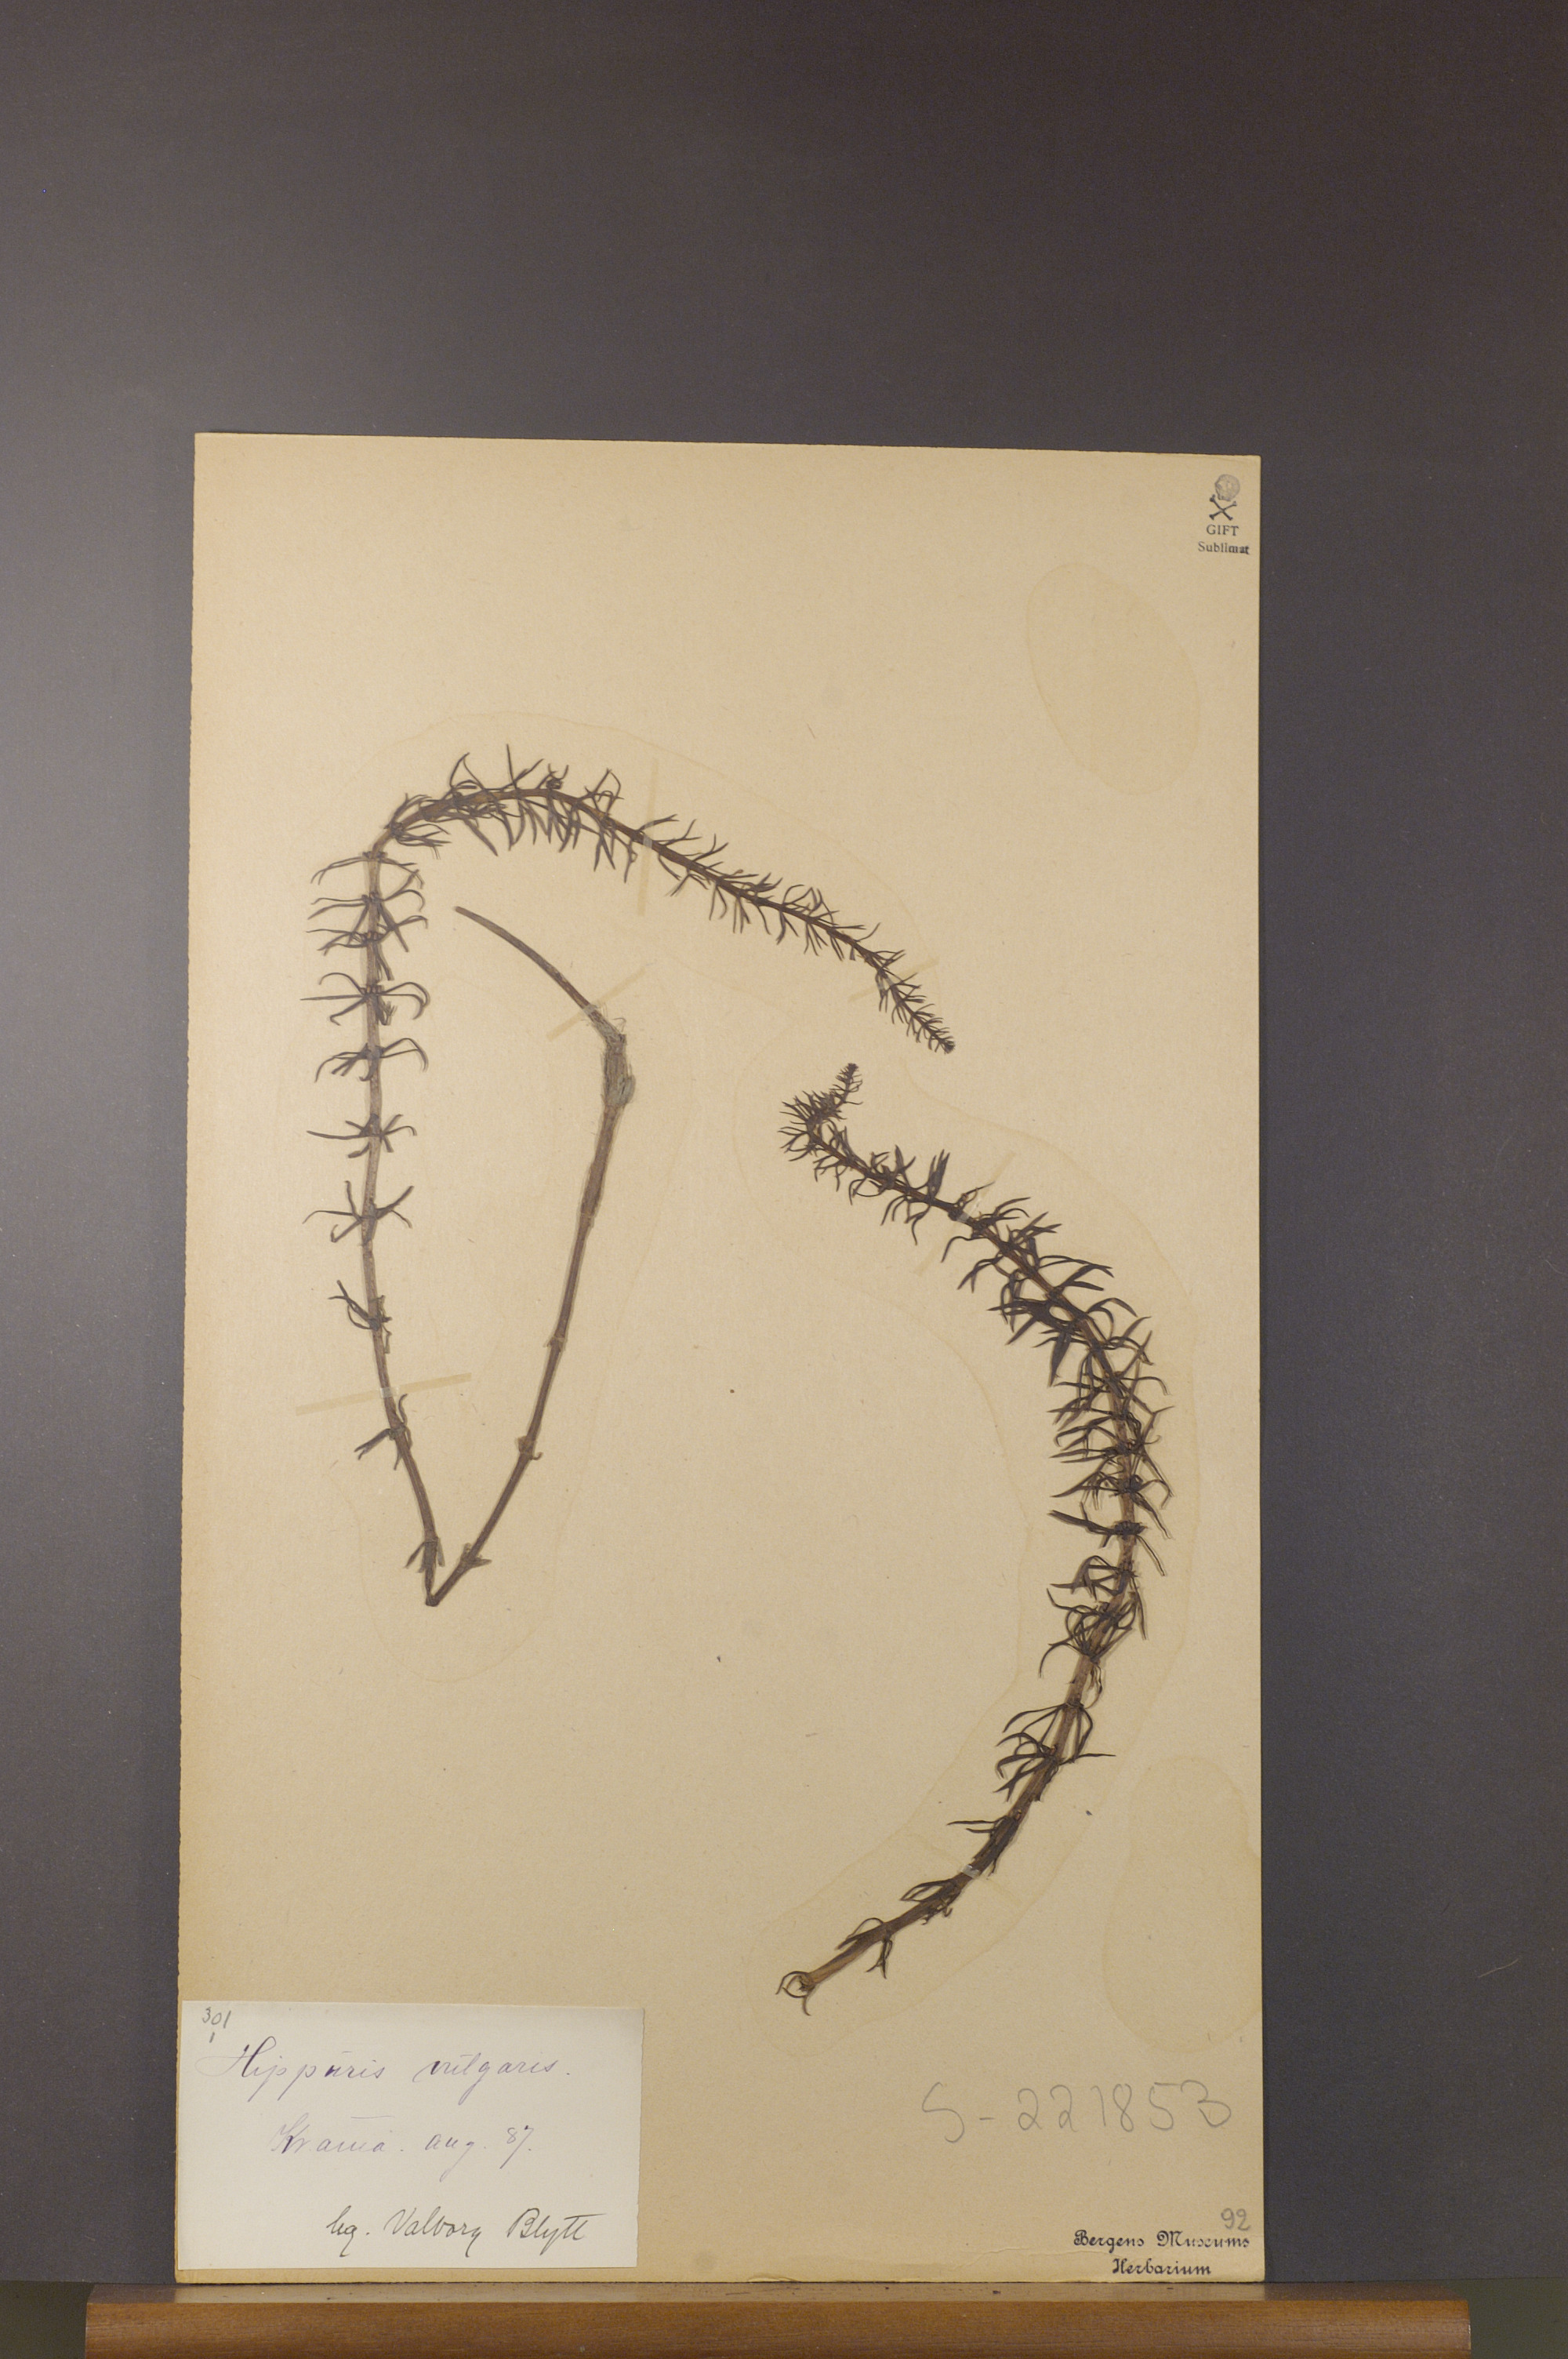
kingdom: Plantae
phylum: Tracheophyta
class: Magnoliopsida
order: Lamiales
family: Plantaginaceae
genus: Hippuris
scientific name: Hippuris vulgaris
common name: Mare's-tail
